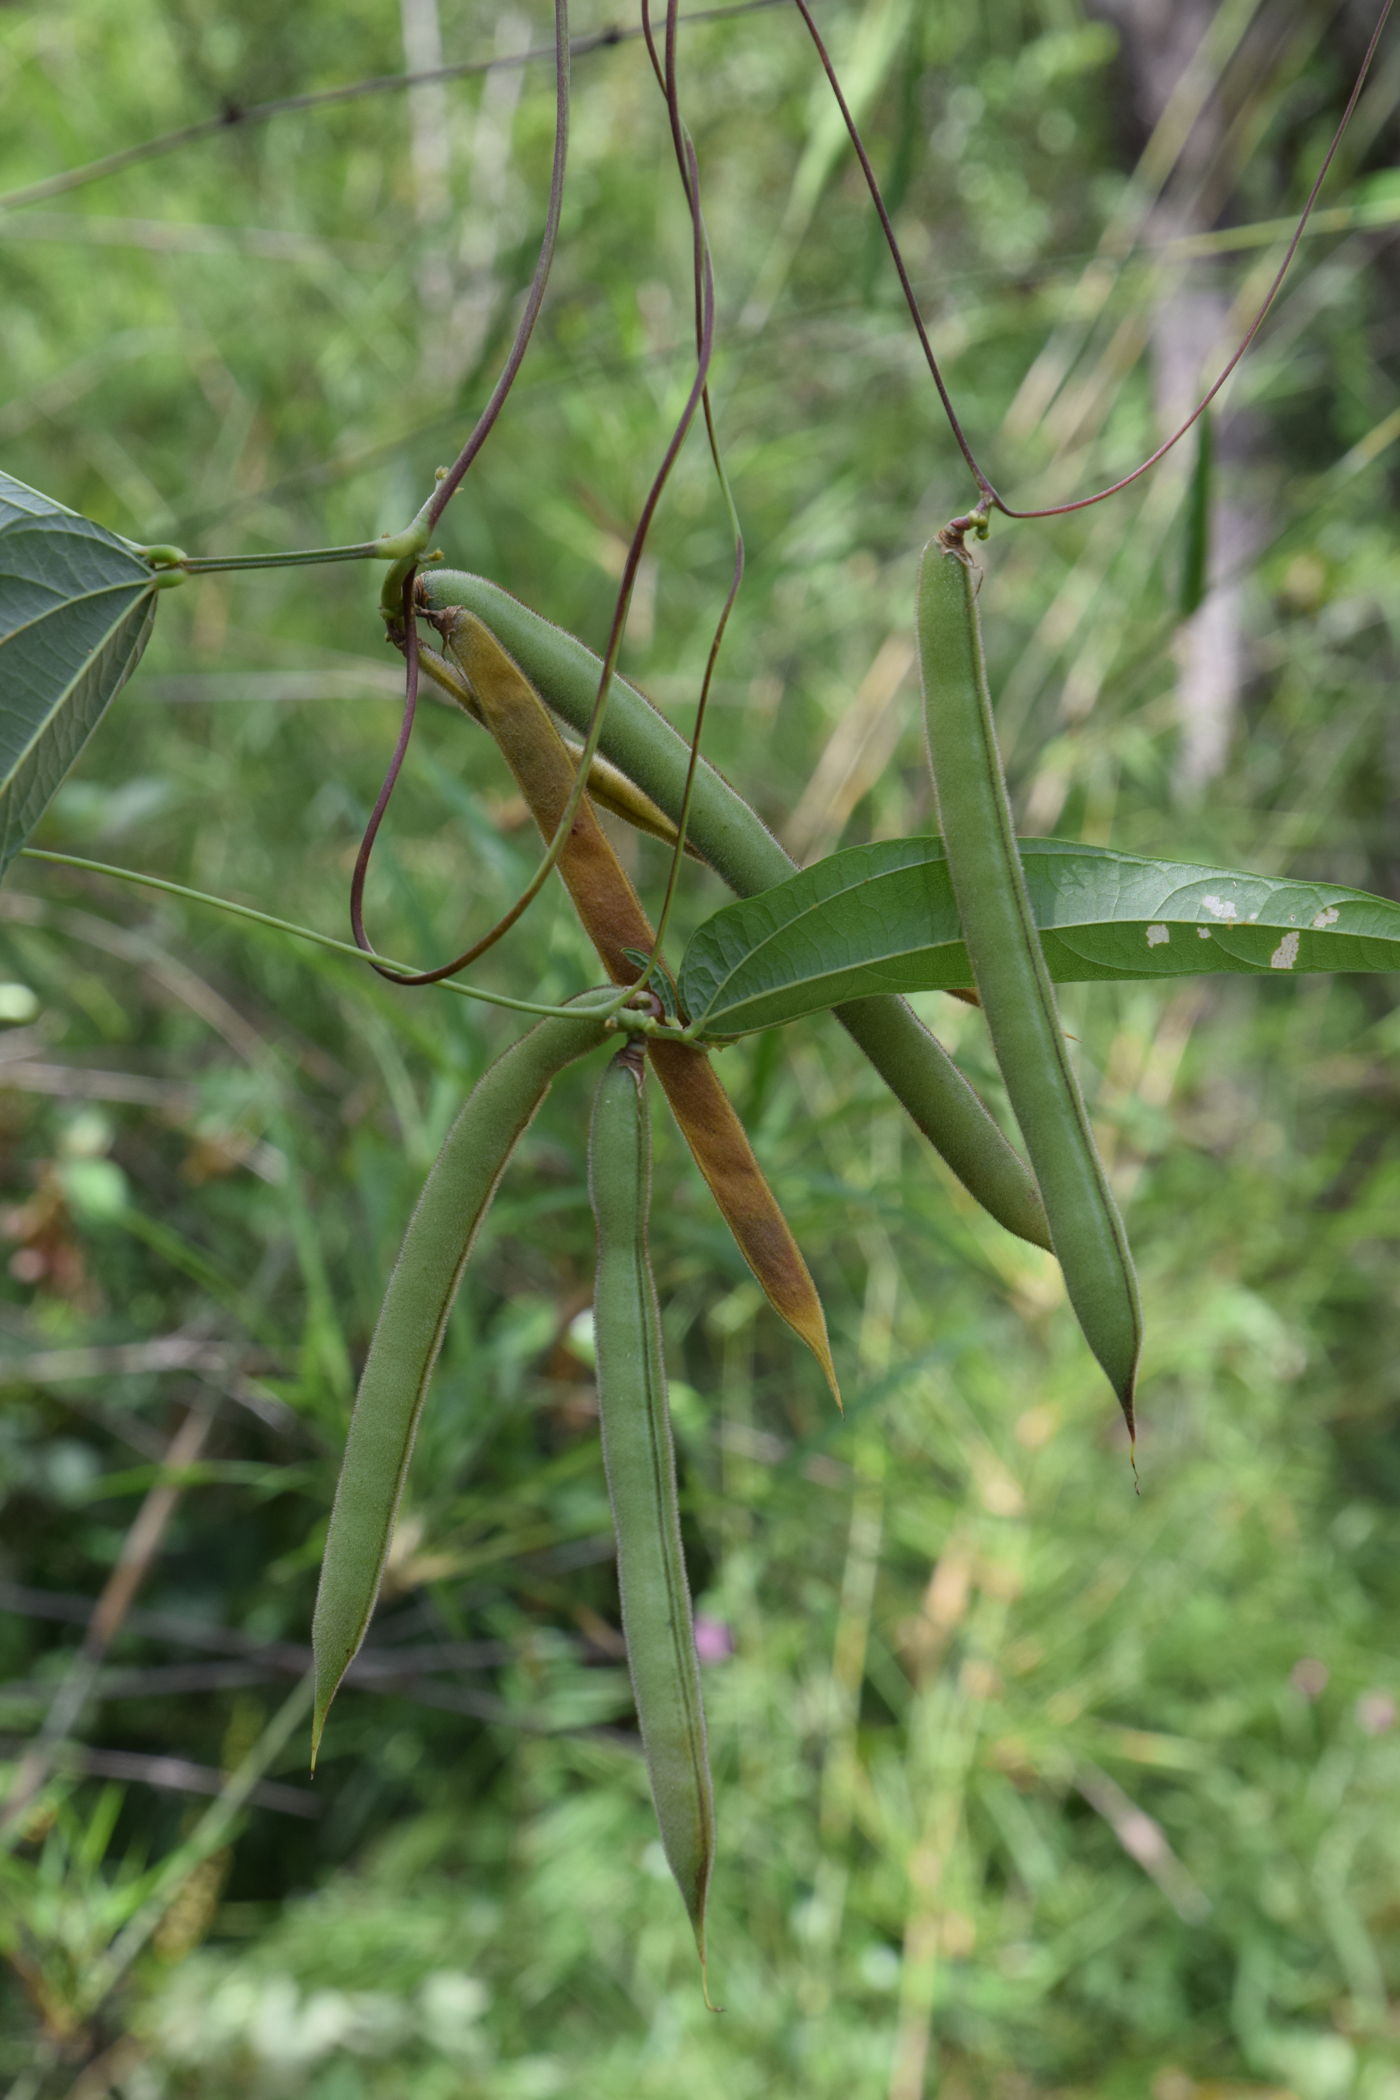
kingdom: Plantae
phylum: Tracheophyta
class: Magnoliopsida
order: Fabales
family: Fabaceae
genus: Dysolobium
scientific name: Dysolobium pilosum
